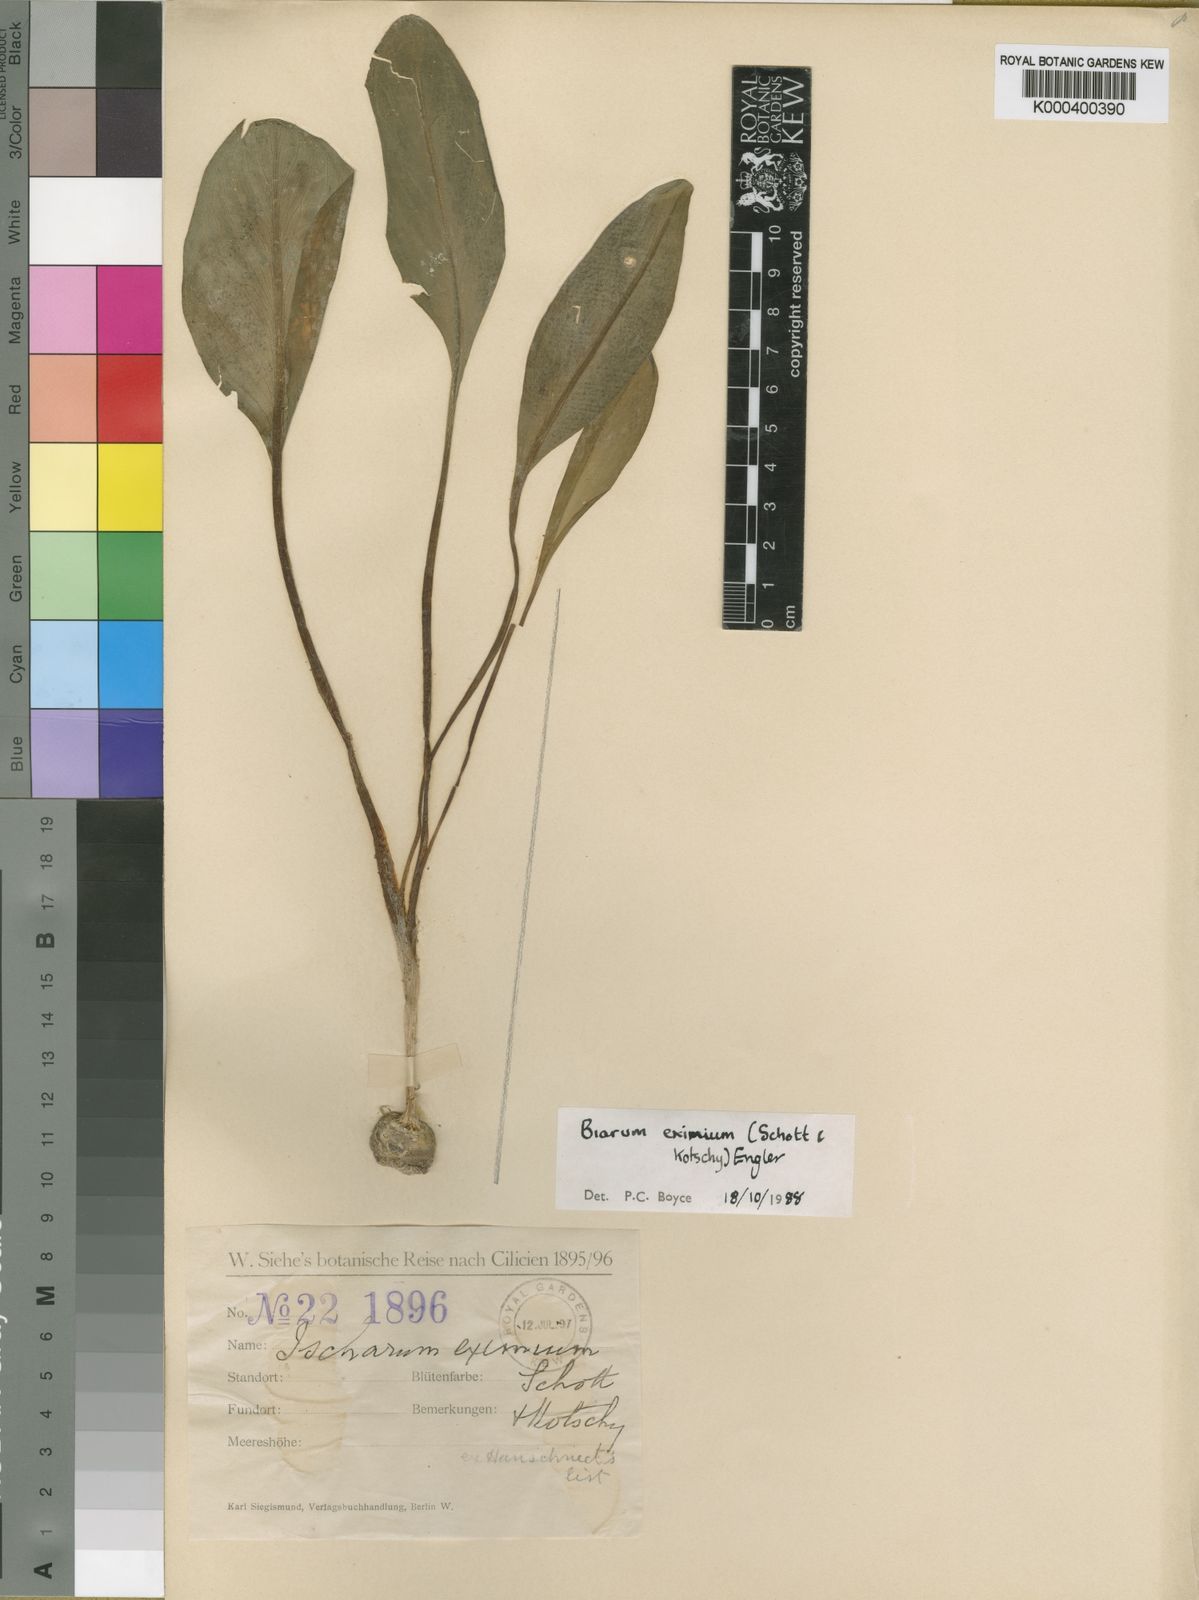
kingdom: Plantae
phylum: Tracheophyta
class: Liliopsida
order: Alismatales
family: Araceae
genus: Biarum
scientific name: Biarum eximium
